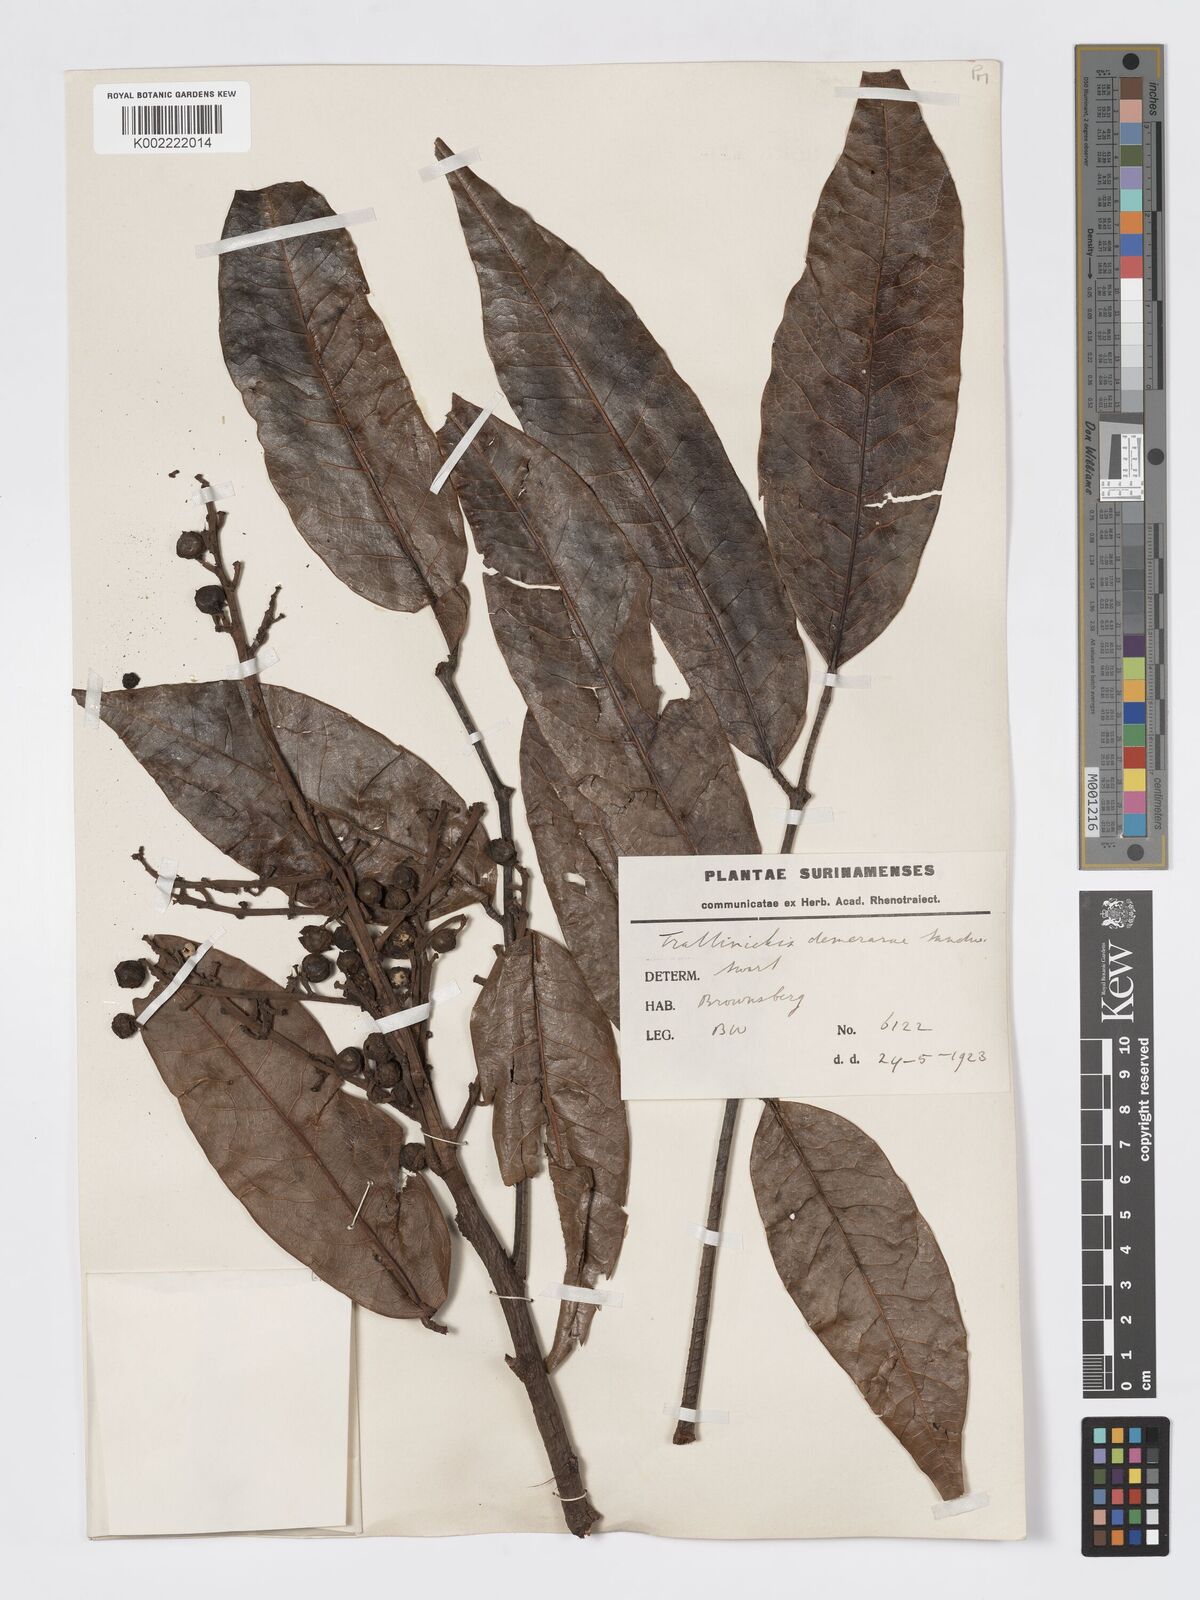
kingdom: Plantae
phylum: Tracheophyta
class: Magnoliopsida
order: Sapindales
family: Burseraceae
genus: Trattinnickia
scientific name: Trattinnickia demerarae
